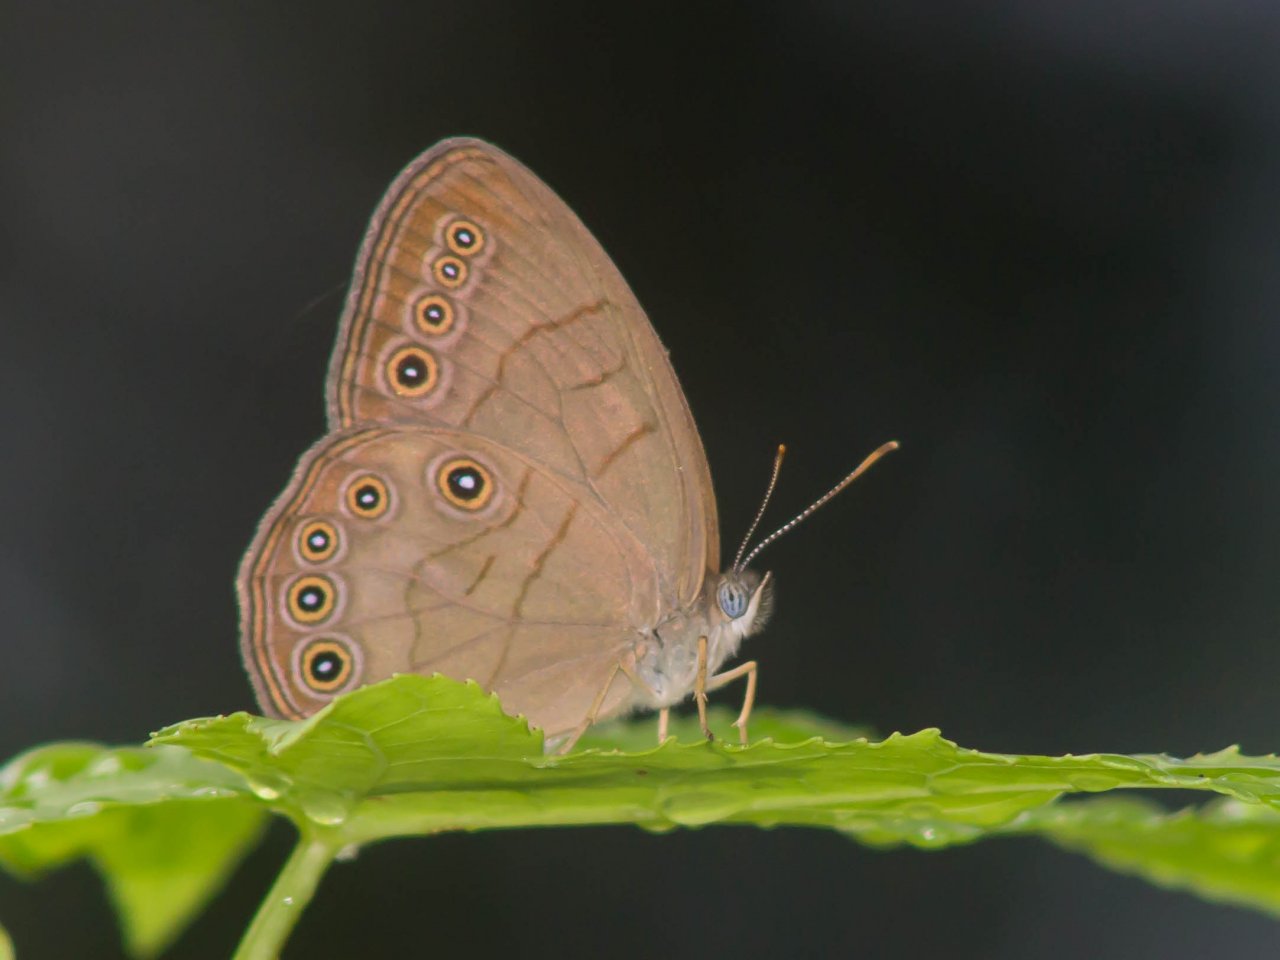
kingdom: Animalia
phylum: Arthropoda
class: Insecta
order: Lepidoptera
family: Nymphalidae
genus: Lethe
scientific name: Lethe eurydice
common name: Appalachian Eyed Brown
